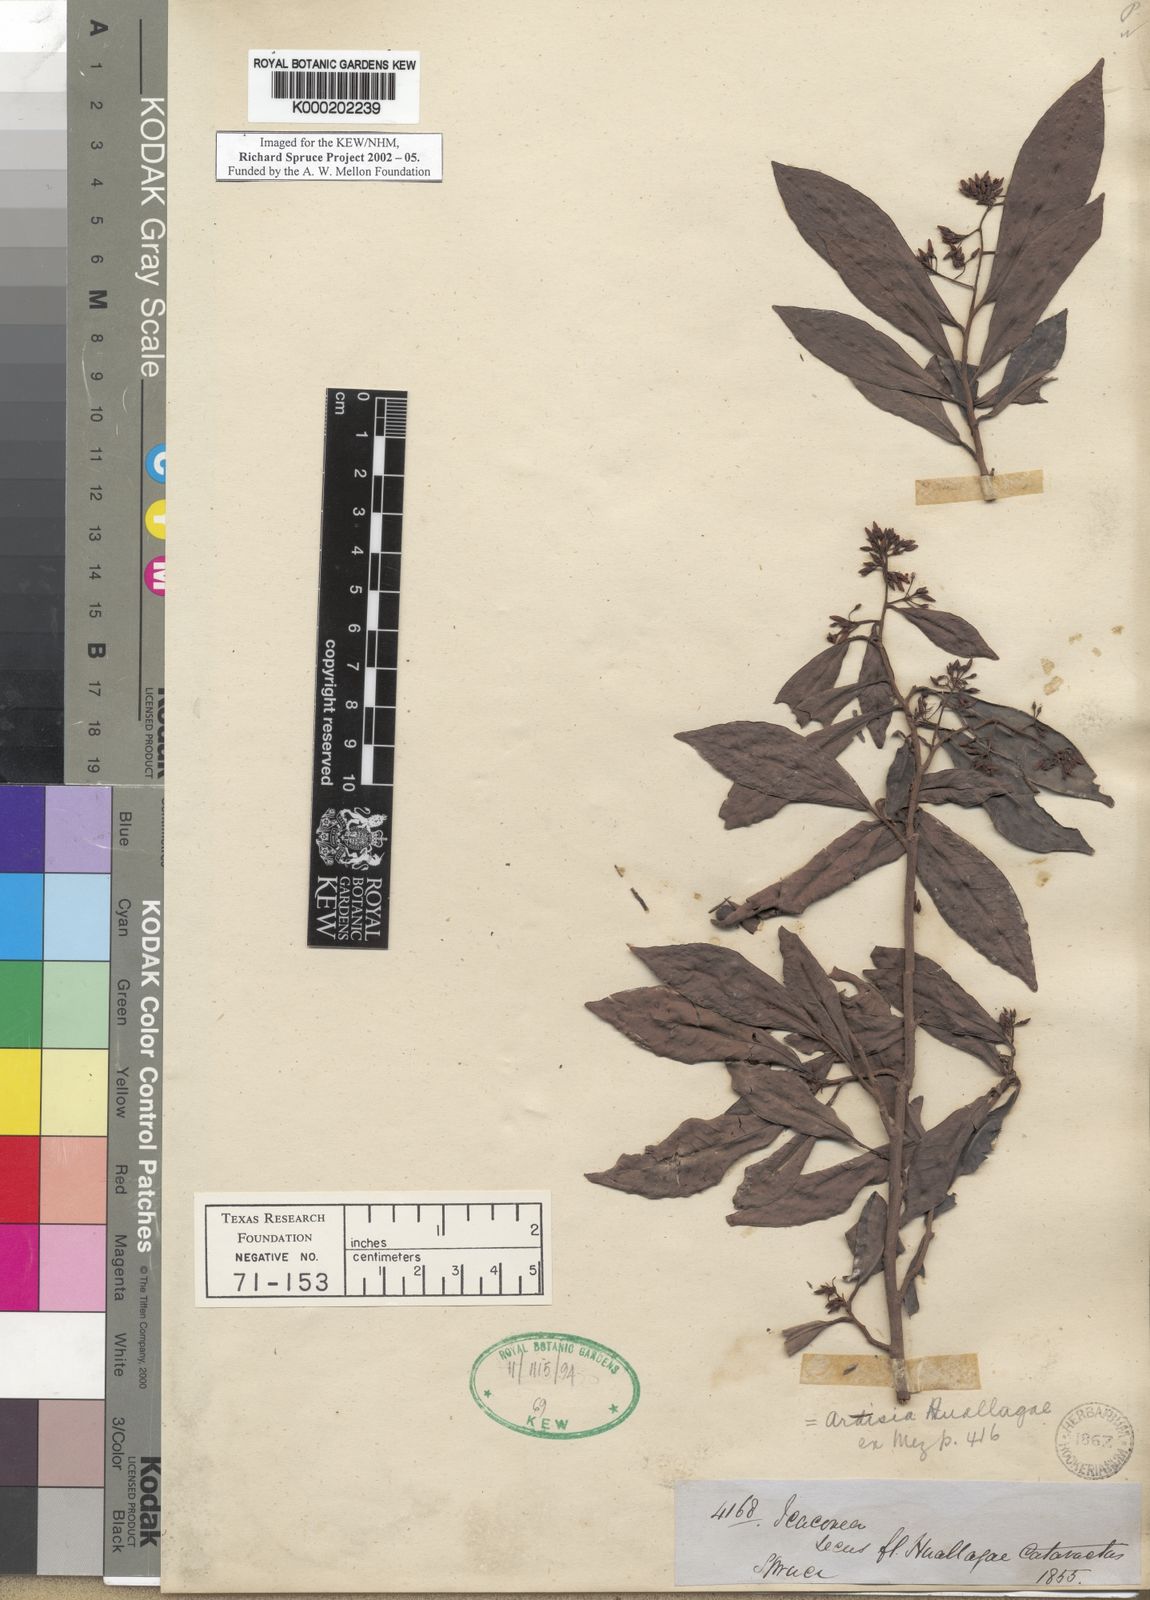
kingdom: Plantae
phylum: Tracheophyta
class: Magnoliopsida
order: Ericales
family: Primulaceae
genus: Ardisia
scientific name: Ardisia huallagae
